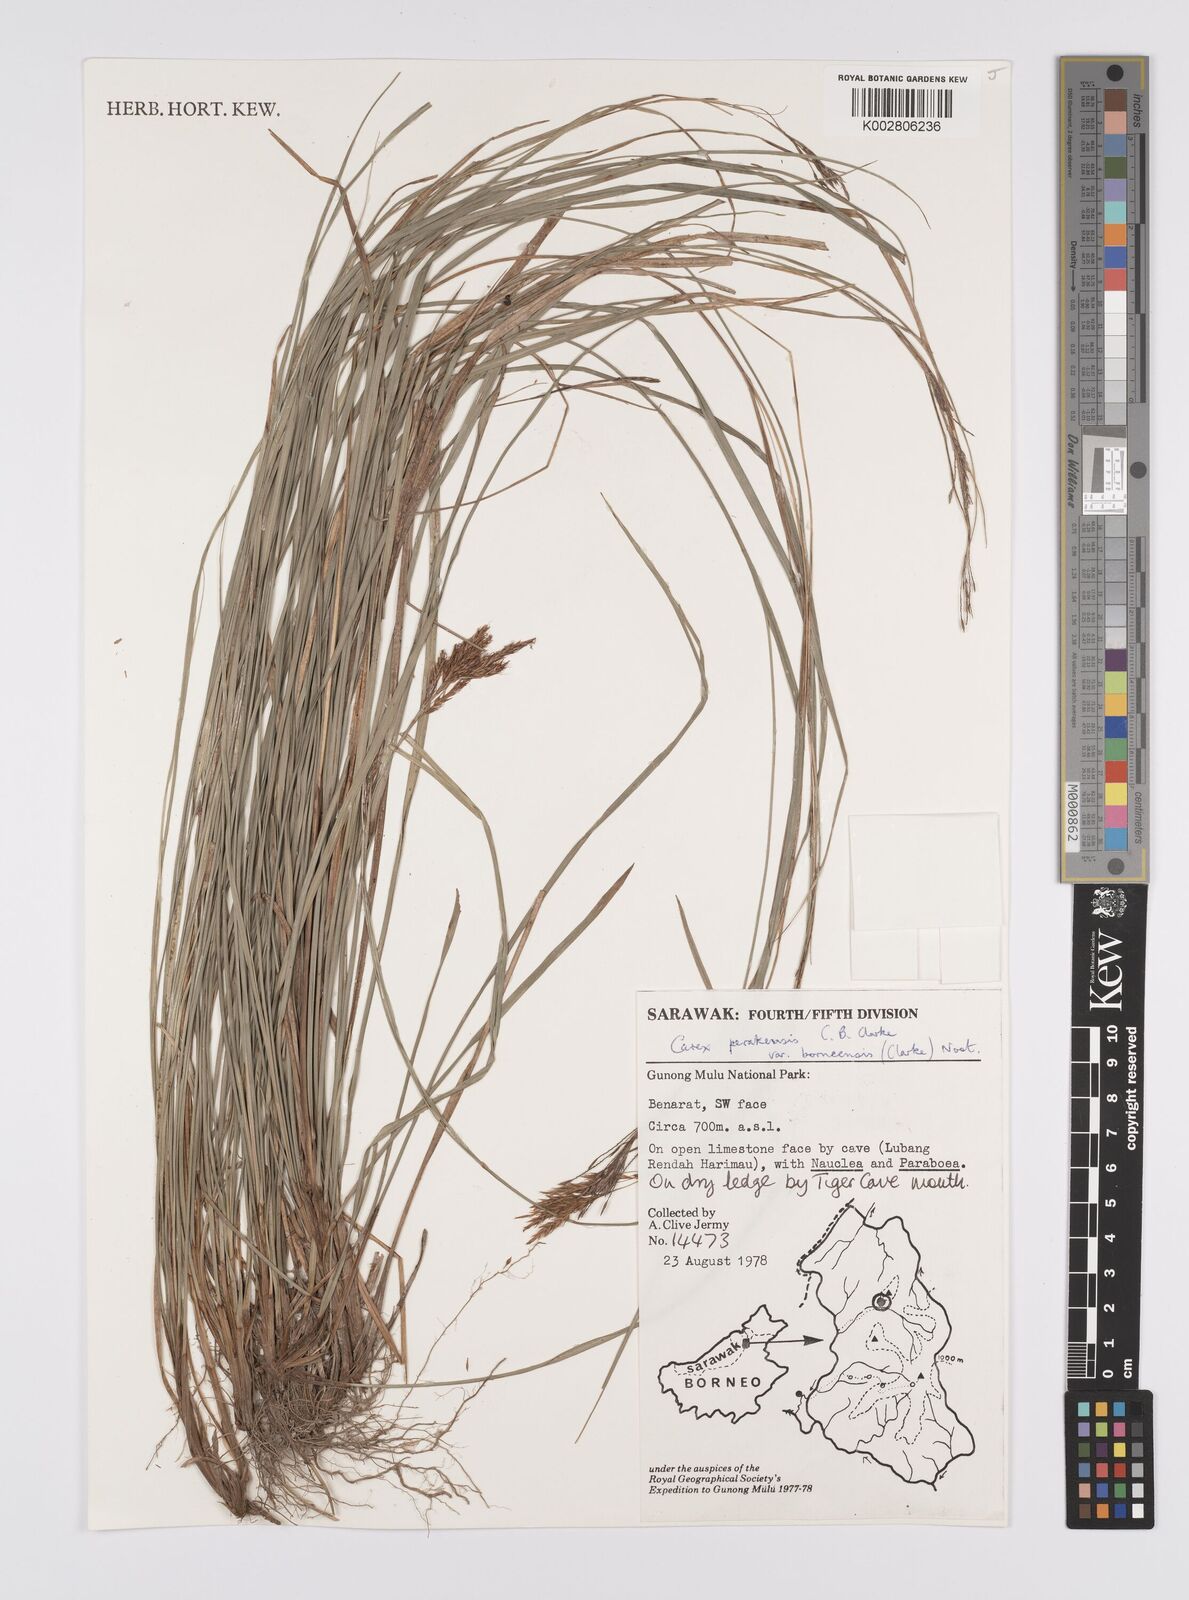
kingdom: Plantae
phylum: Tracheophyta
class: Liliopsida
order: Poales
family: Cyperaceae
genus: Carex
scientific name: Carex perakensis
